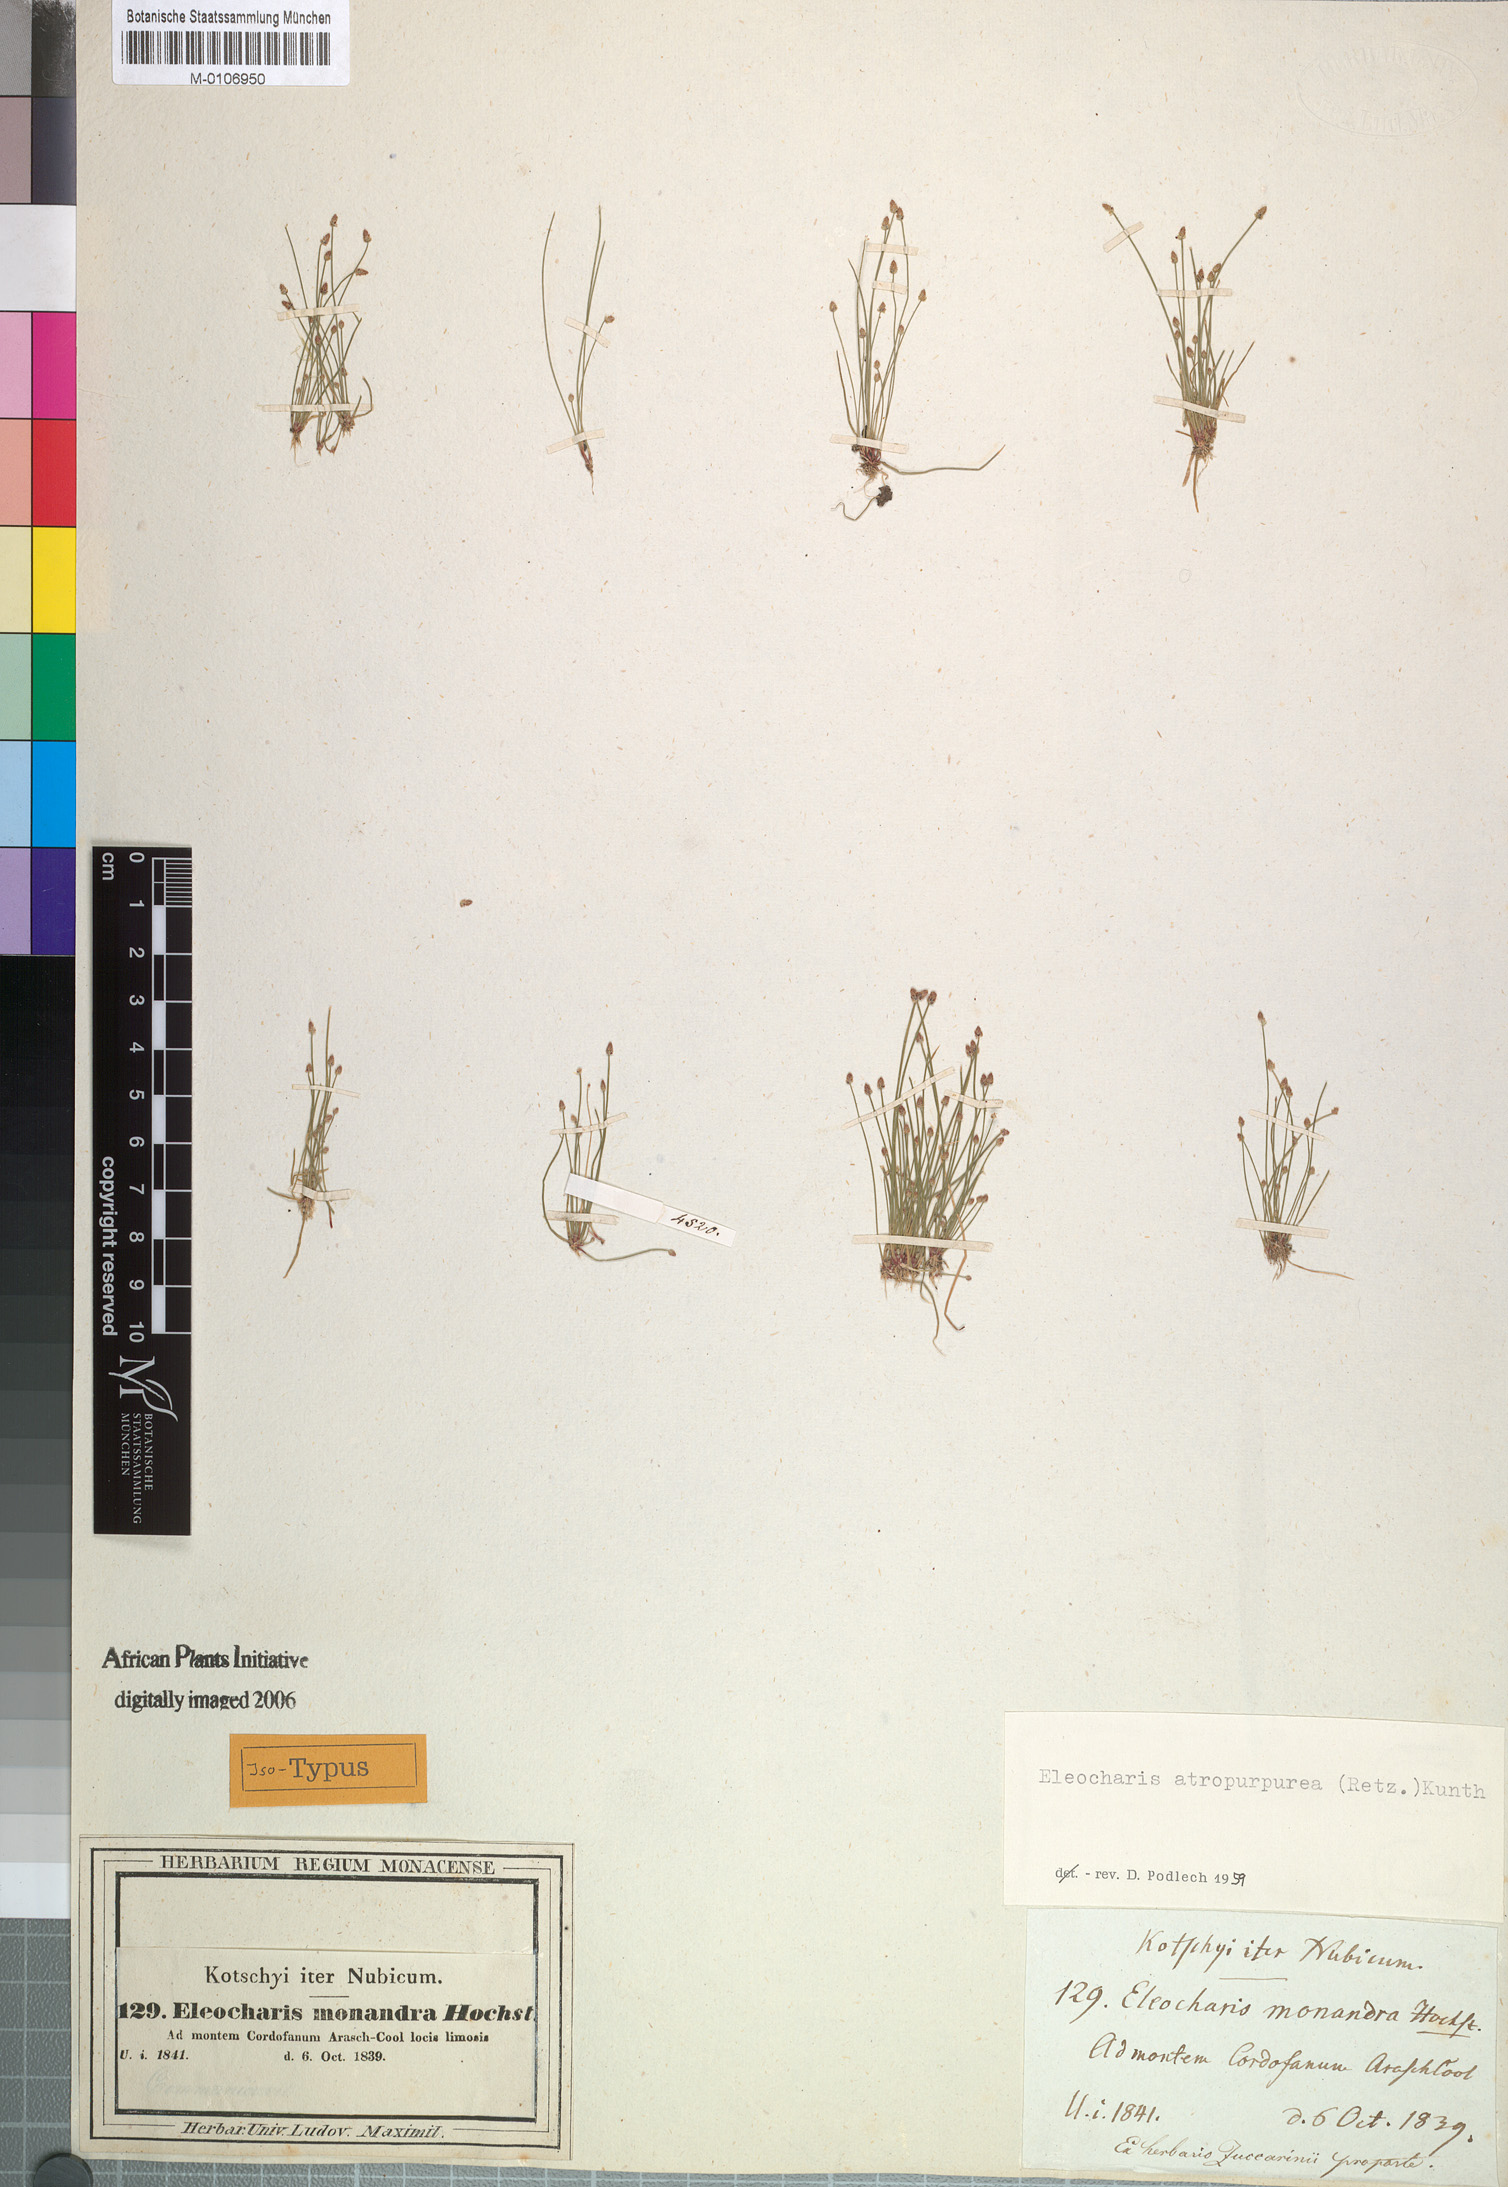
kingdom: Plantae
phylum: Tracheophyta
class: Liliopsida
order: Poales
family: Cyperaceae
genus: Eleocharis
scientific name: Eleocharis atropurpurea
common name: Purple spikerush
